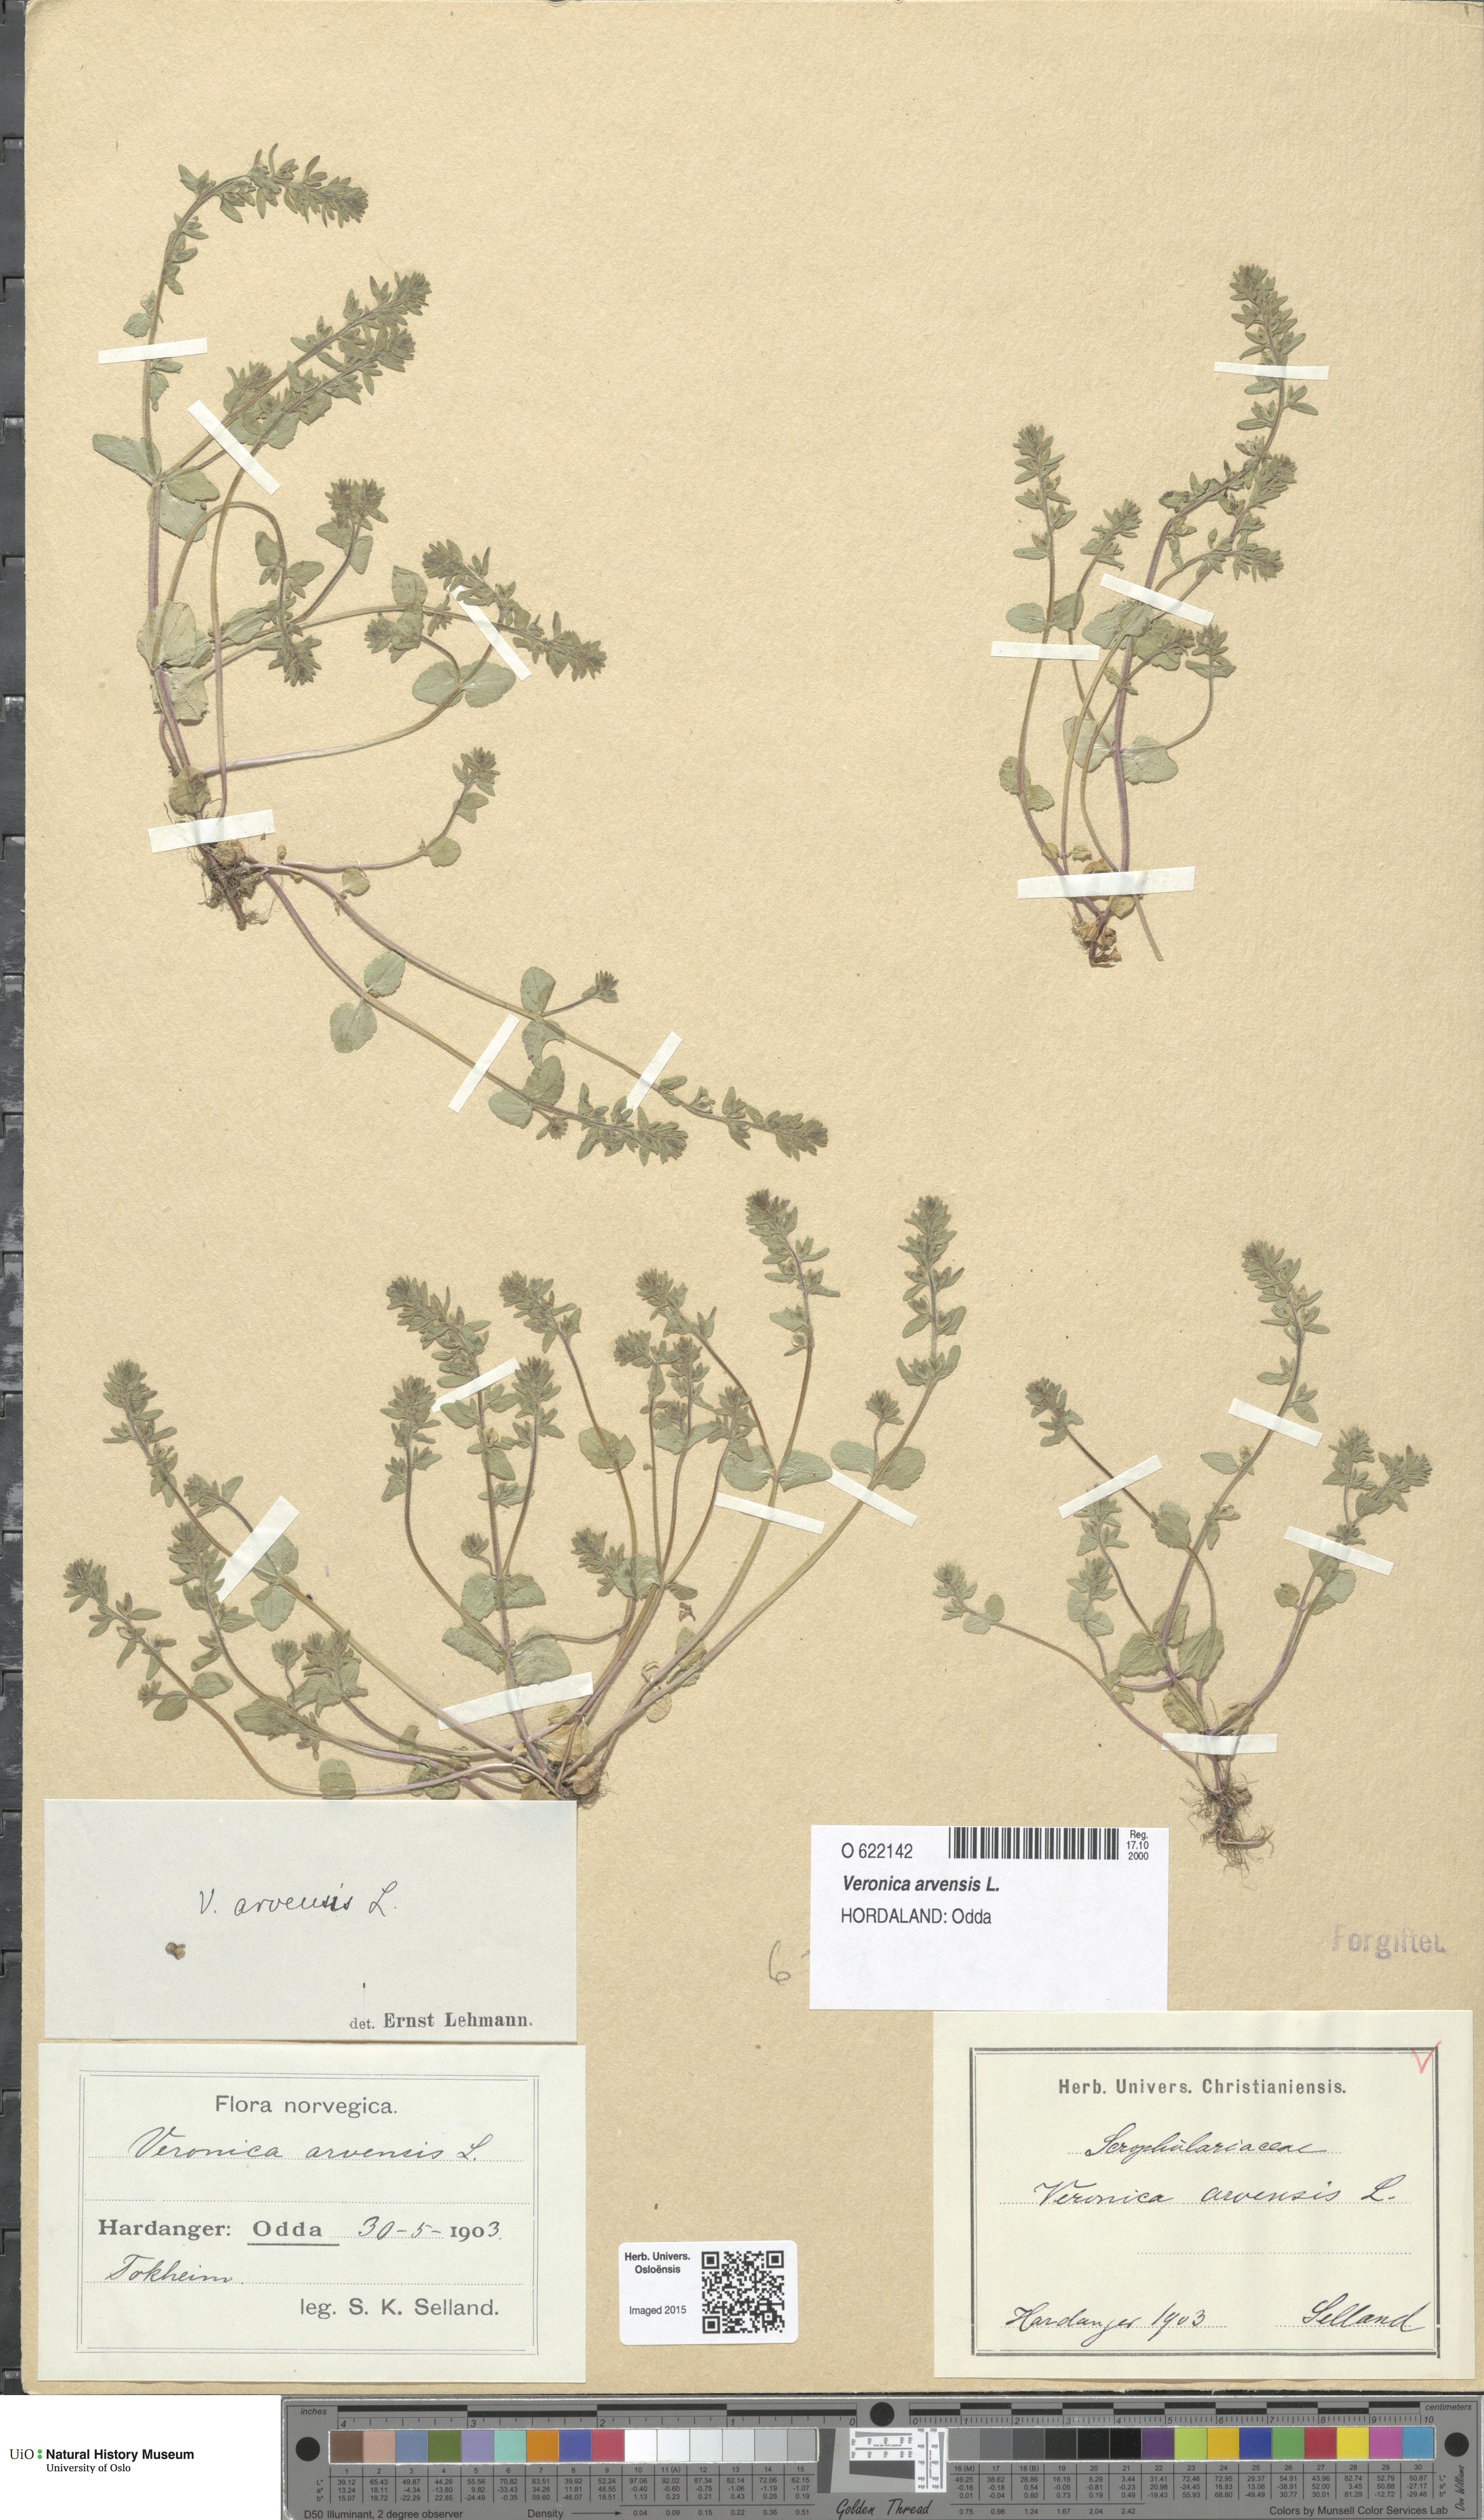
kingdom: Plantae
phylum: Tracheophyta
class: Magnoliopsida
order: Lamiales
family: Plantaginaceae
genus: Veronica
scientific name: Veronica arvensis
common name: Corn speedwell
